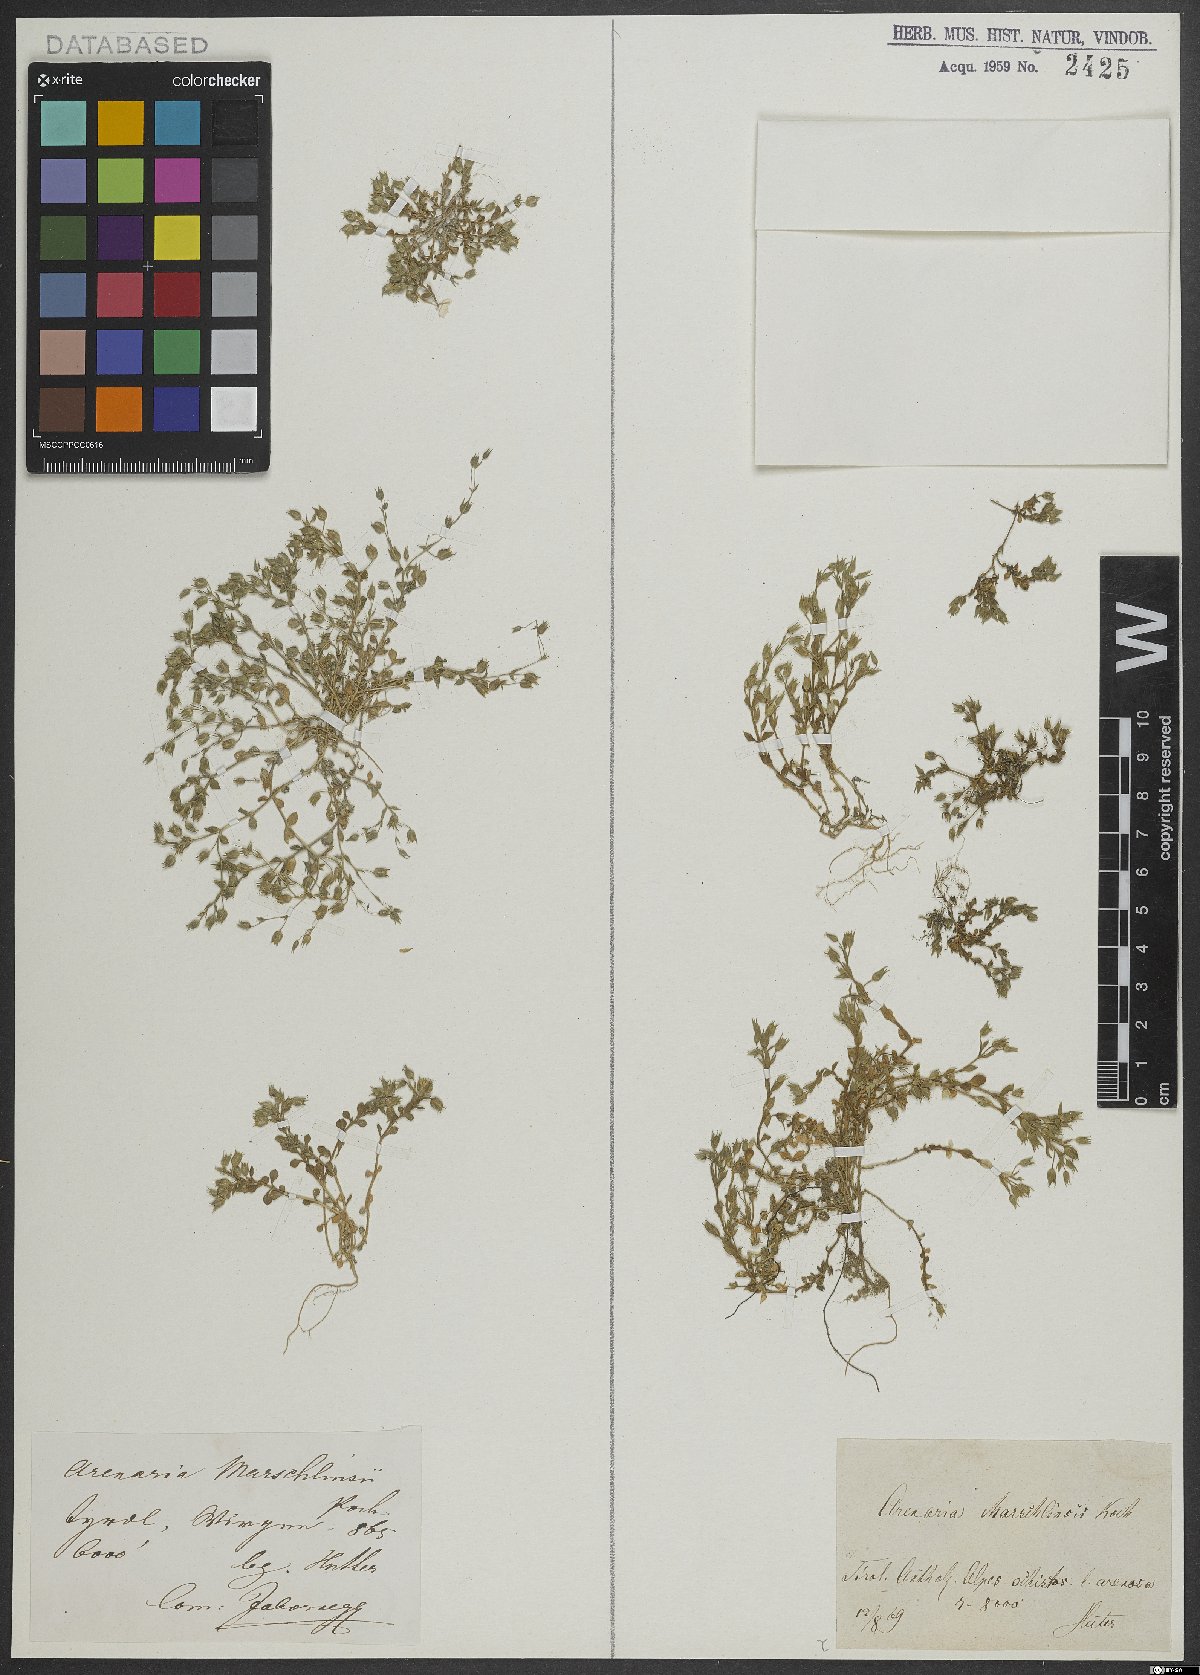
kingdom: Plantae
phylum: Tracheophyta
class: Magnoliopsida
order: Caryophyllales
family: Caryophyllaceae
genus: Arenaria
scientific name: Arenaria marschlinsii
